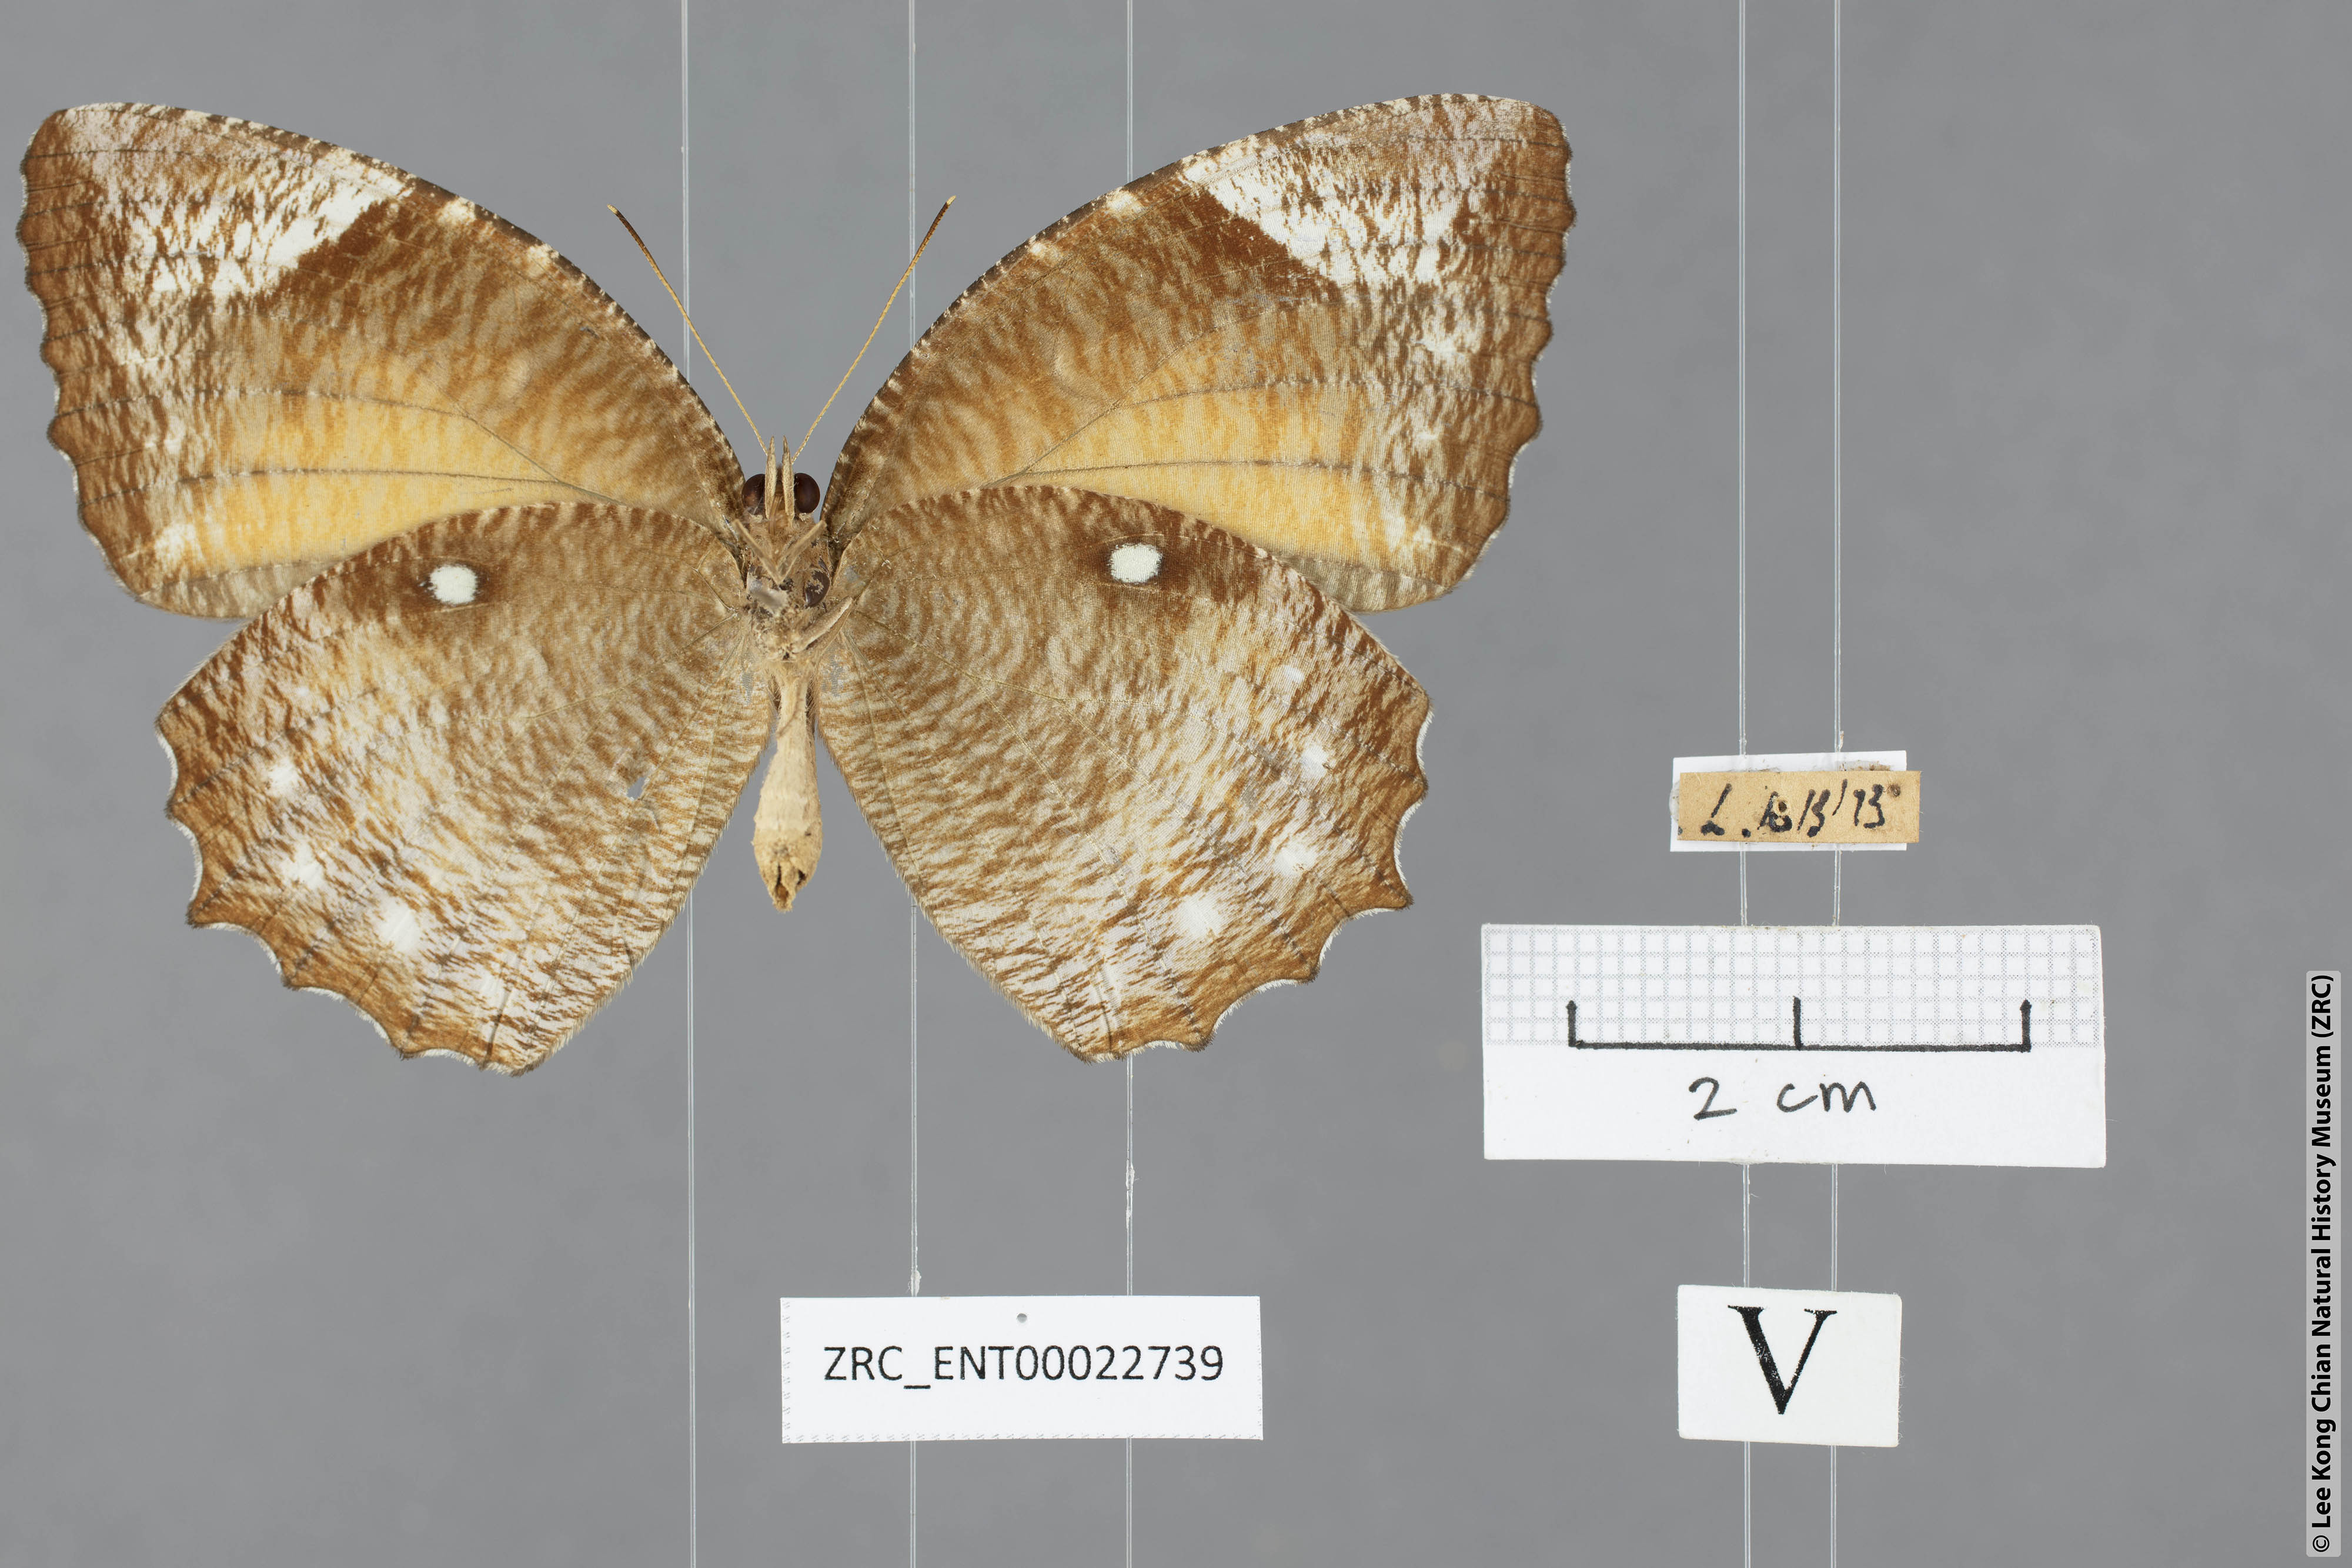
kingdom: Animalia
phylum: Arthropoda
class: Insecta
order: Lepidoptera
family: Nymphalidae
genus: Elymnias
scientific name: Elymnias hypermnestra
